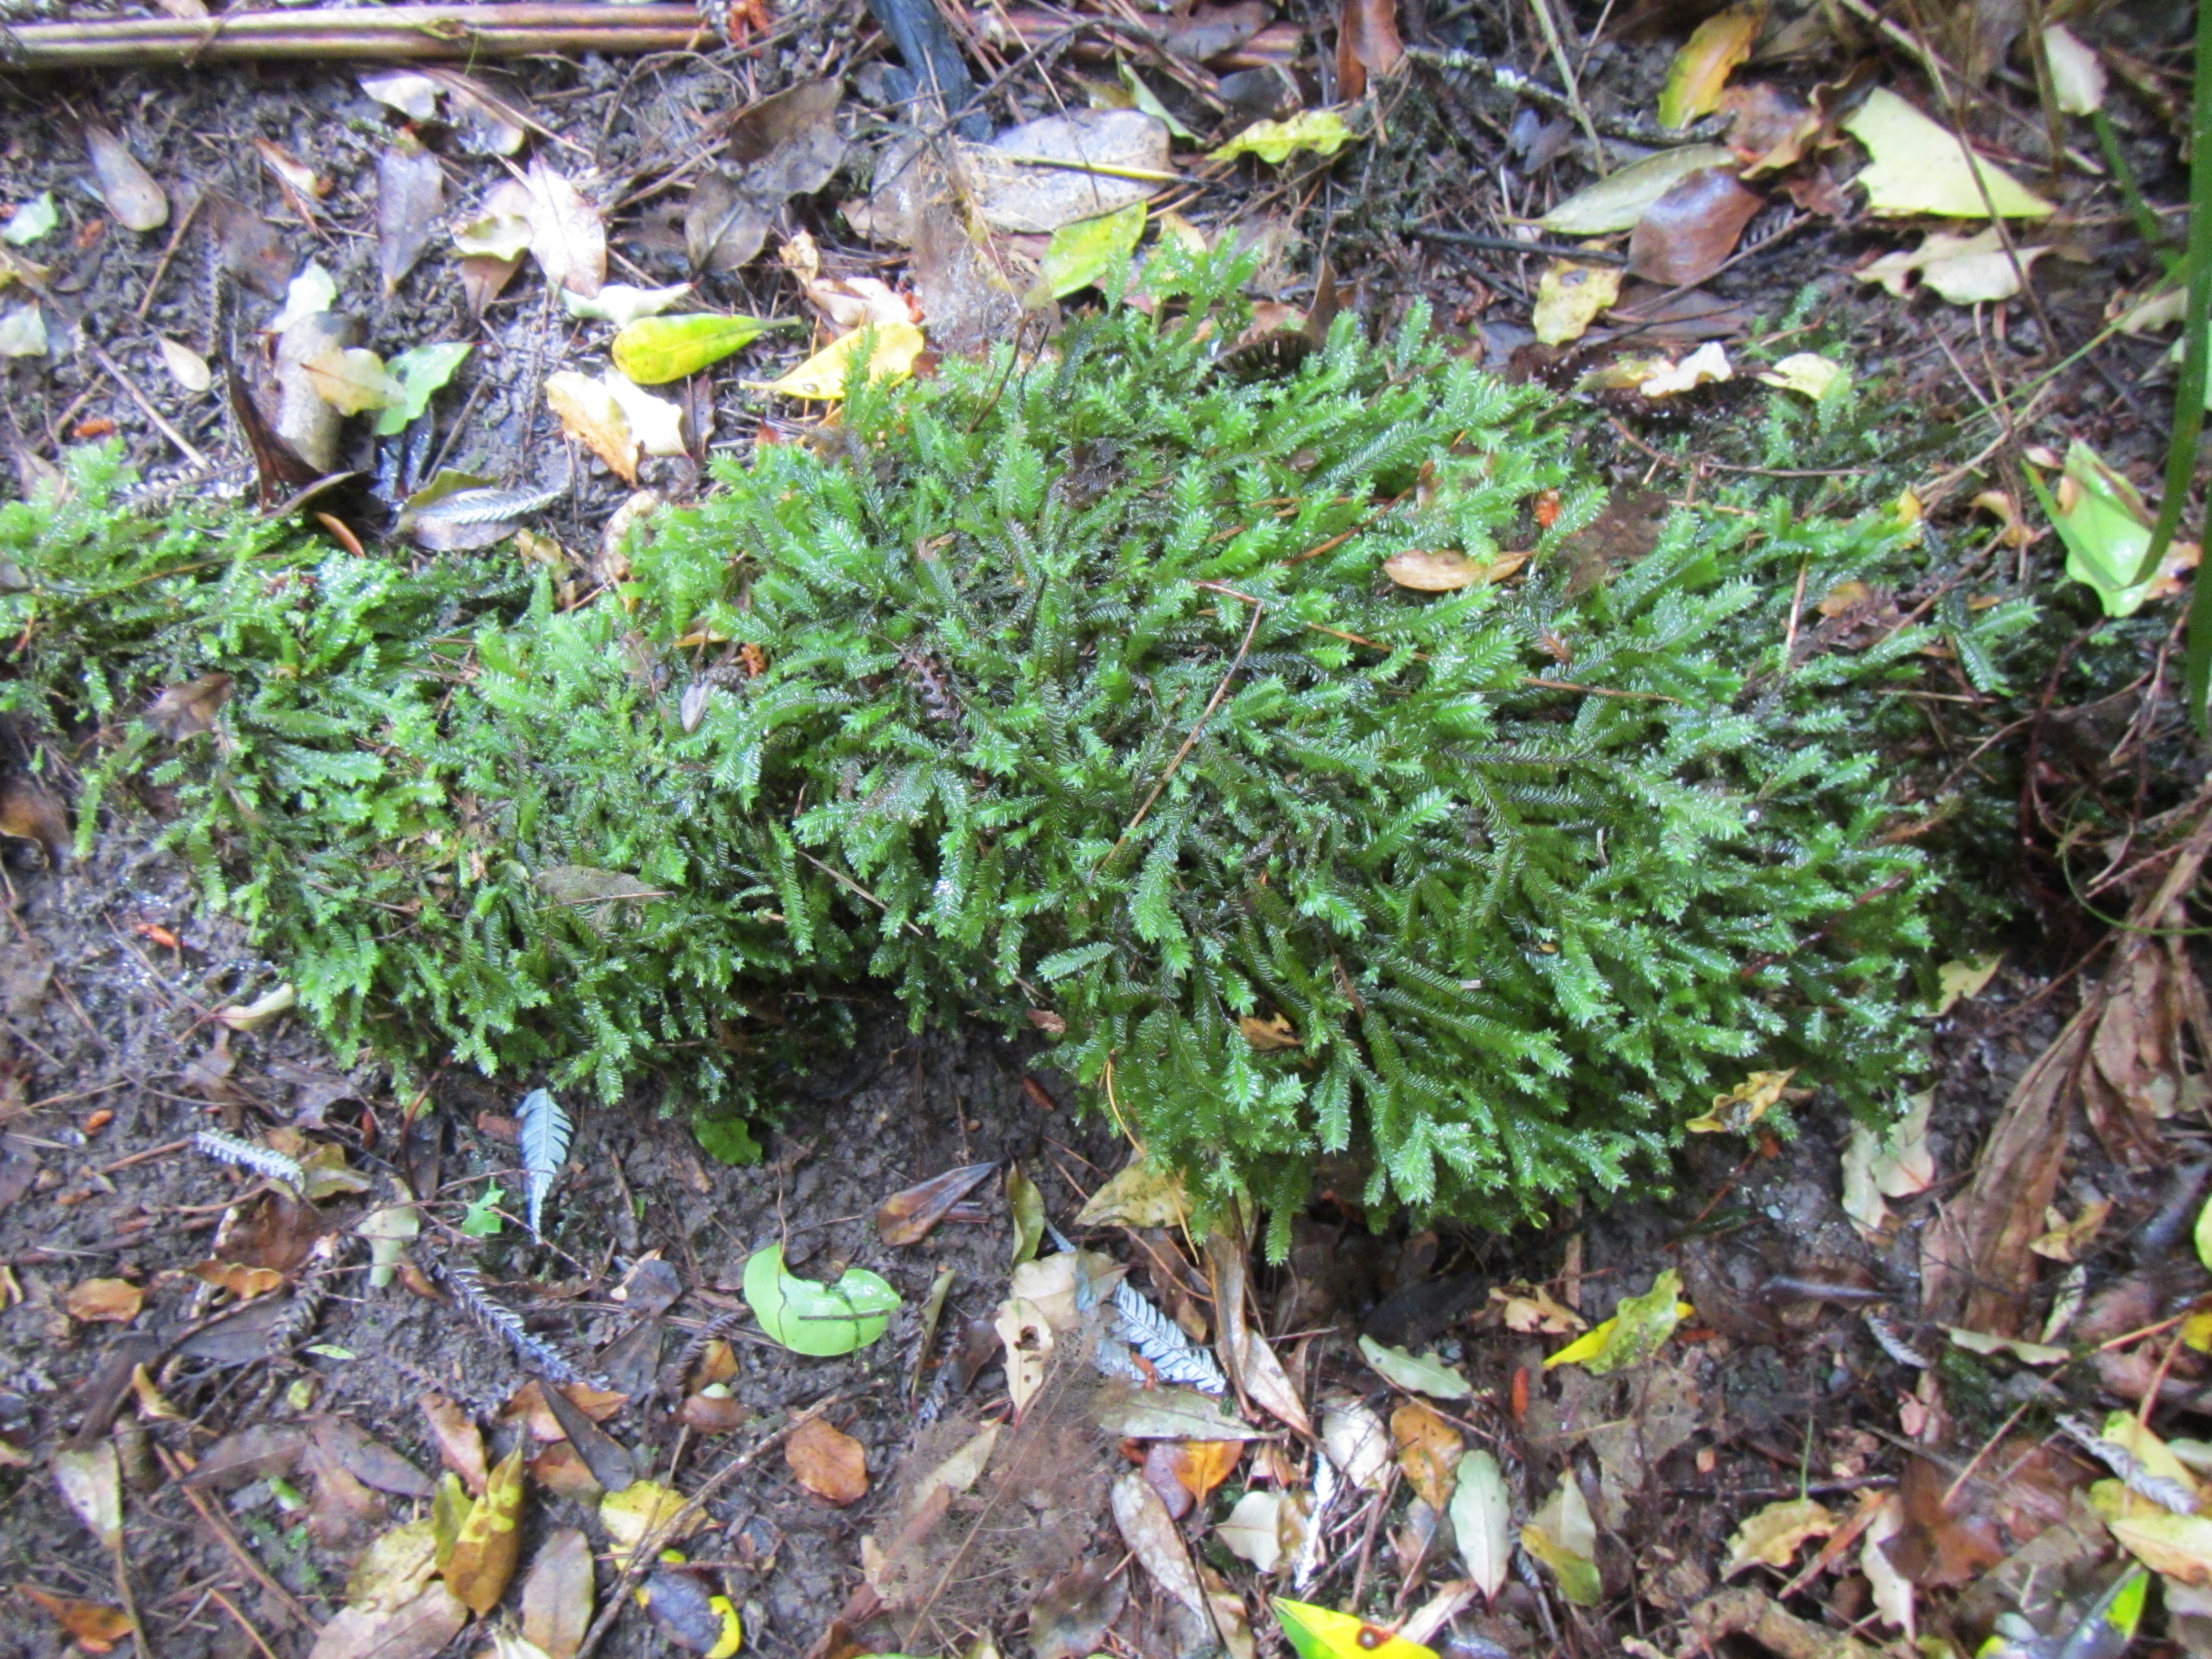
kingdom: Plantae
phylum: Marchantiophyta
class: Jungermanniopsida
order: Jungermanniales
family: Plagiochilaceae
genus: Plagiochila
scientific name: Plagiochila stephensoniana
